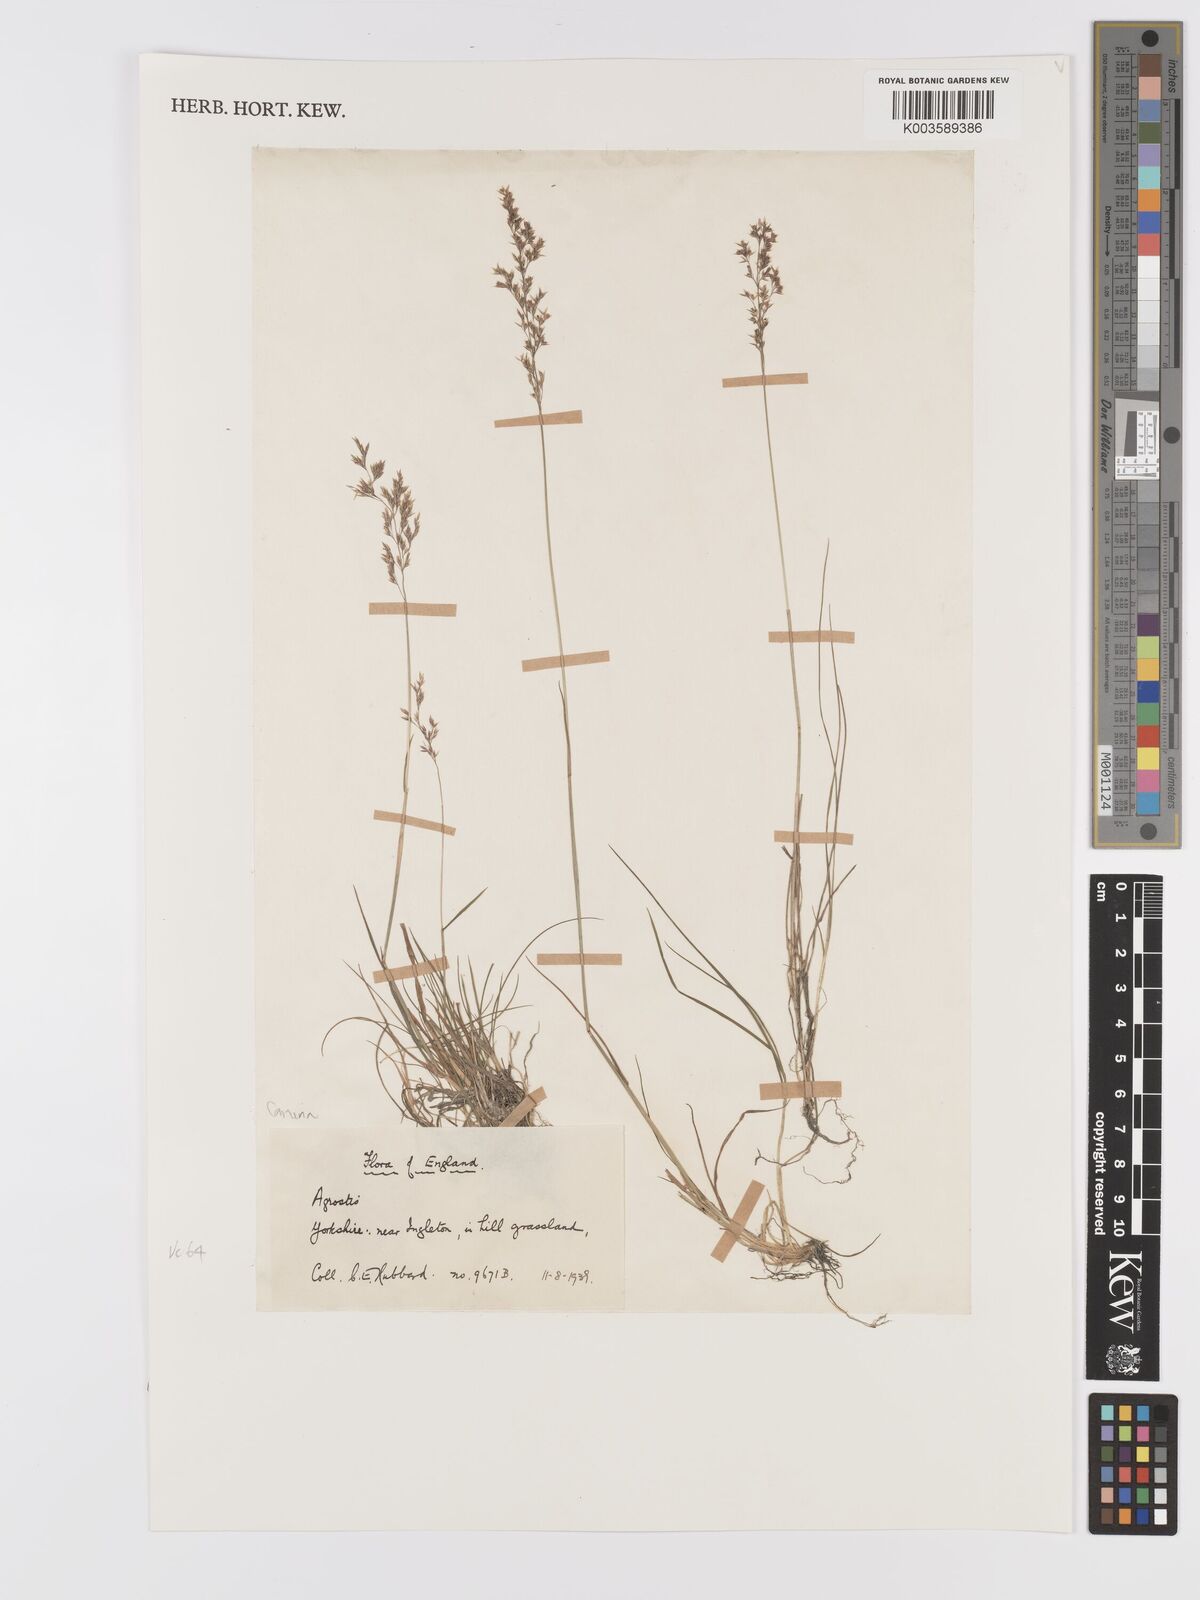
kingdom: Plantae
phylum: Tracheophyta
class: Liliopsida
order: Poales
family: Poaceae
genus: Agrostis
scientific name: Agrostis canina
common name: Velvet bent
